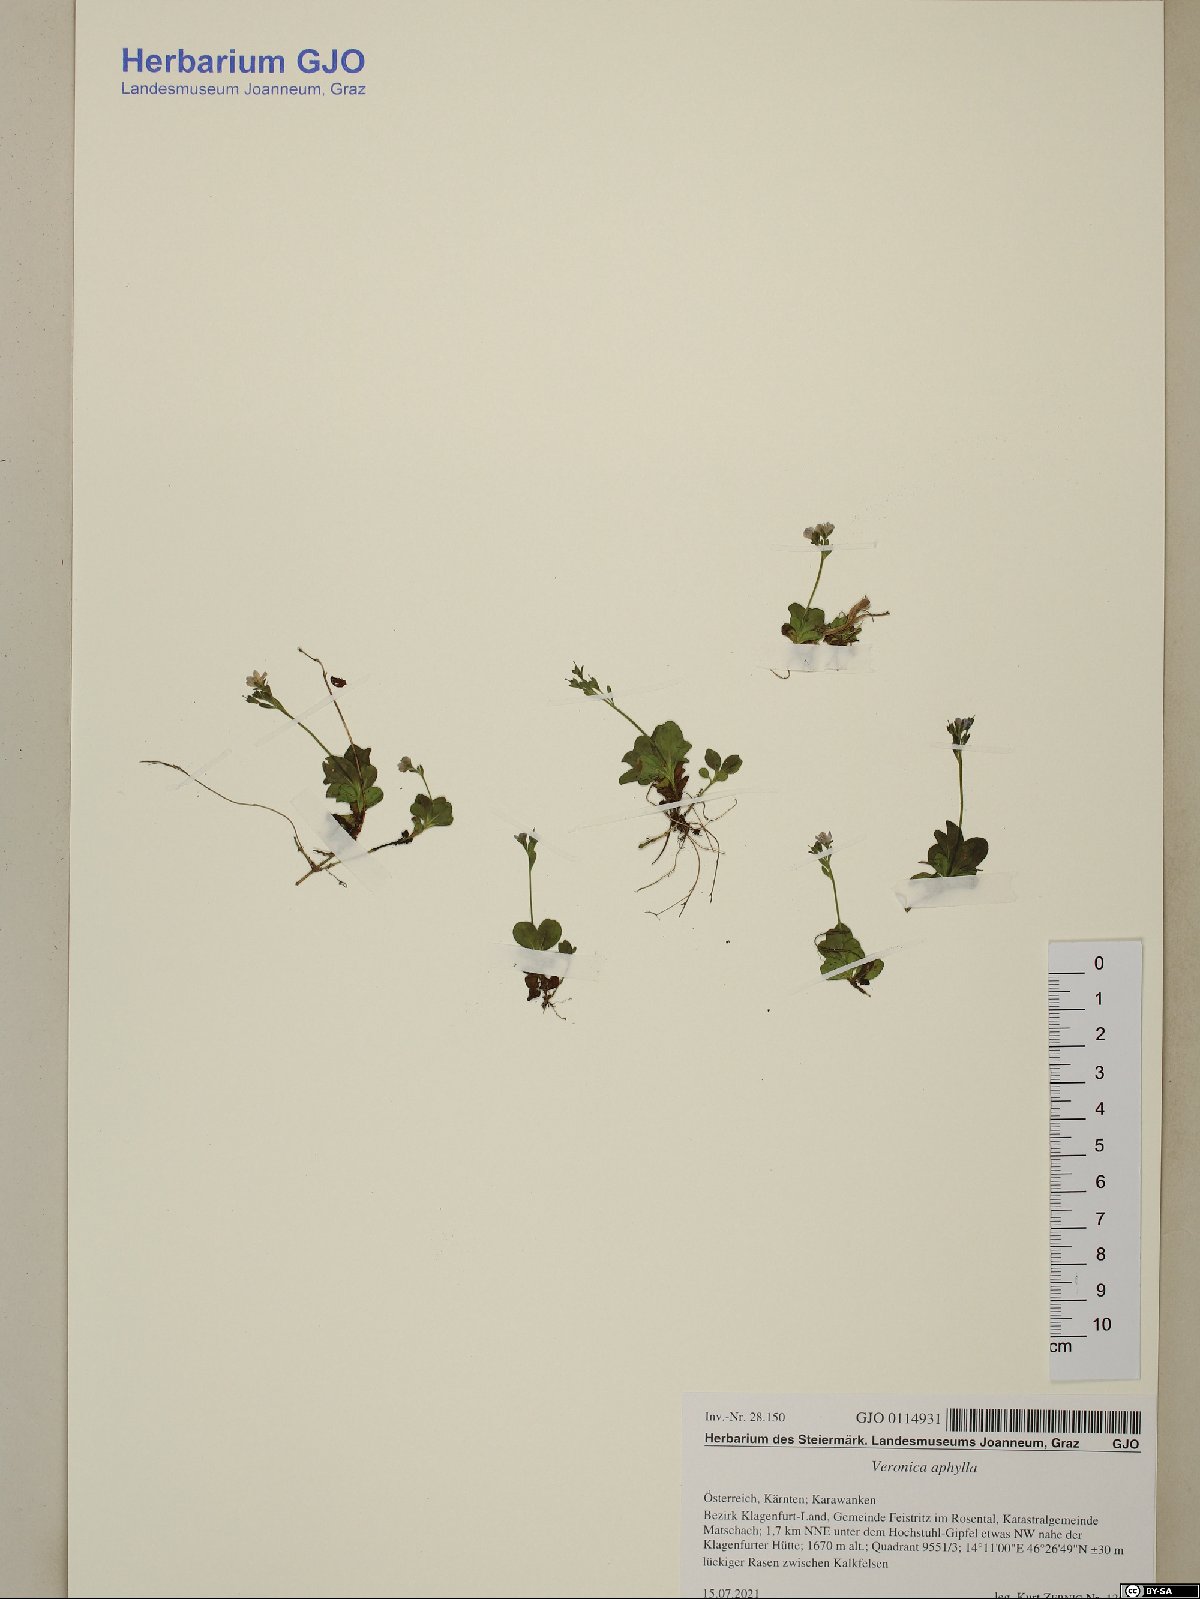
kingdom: Plantae
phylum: Tracheophyta
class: Magnoliopsida
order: Lamiales
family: Plantaginaceae
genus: Veronica
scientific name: Veronica aphylla
